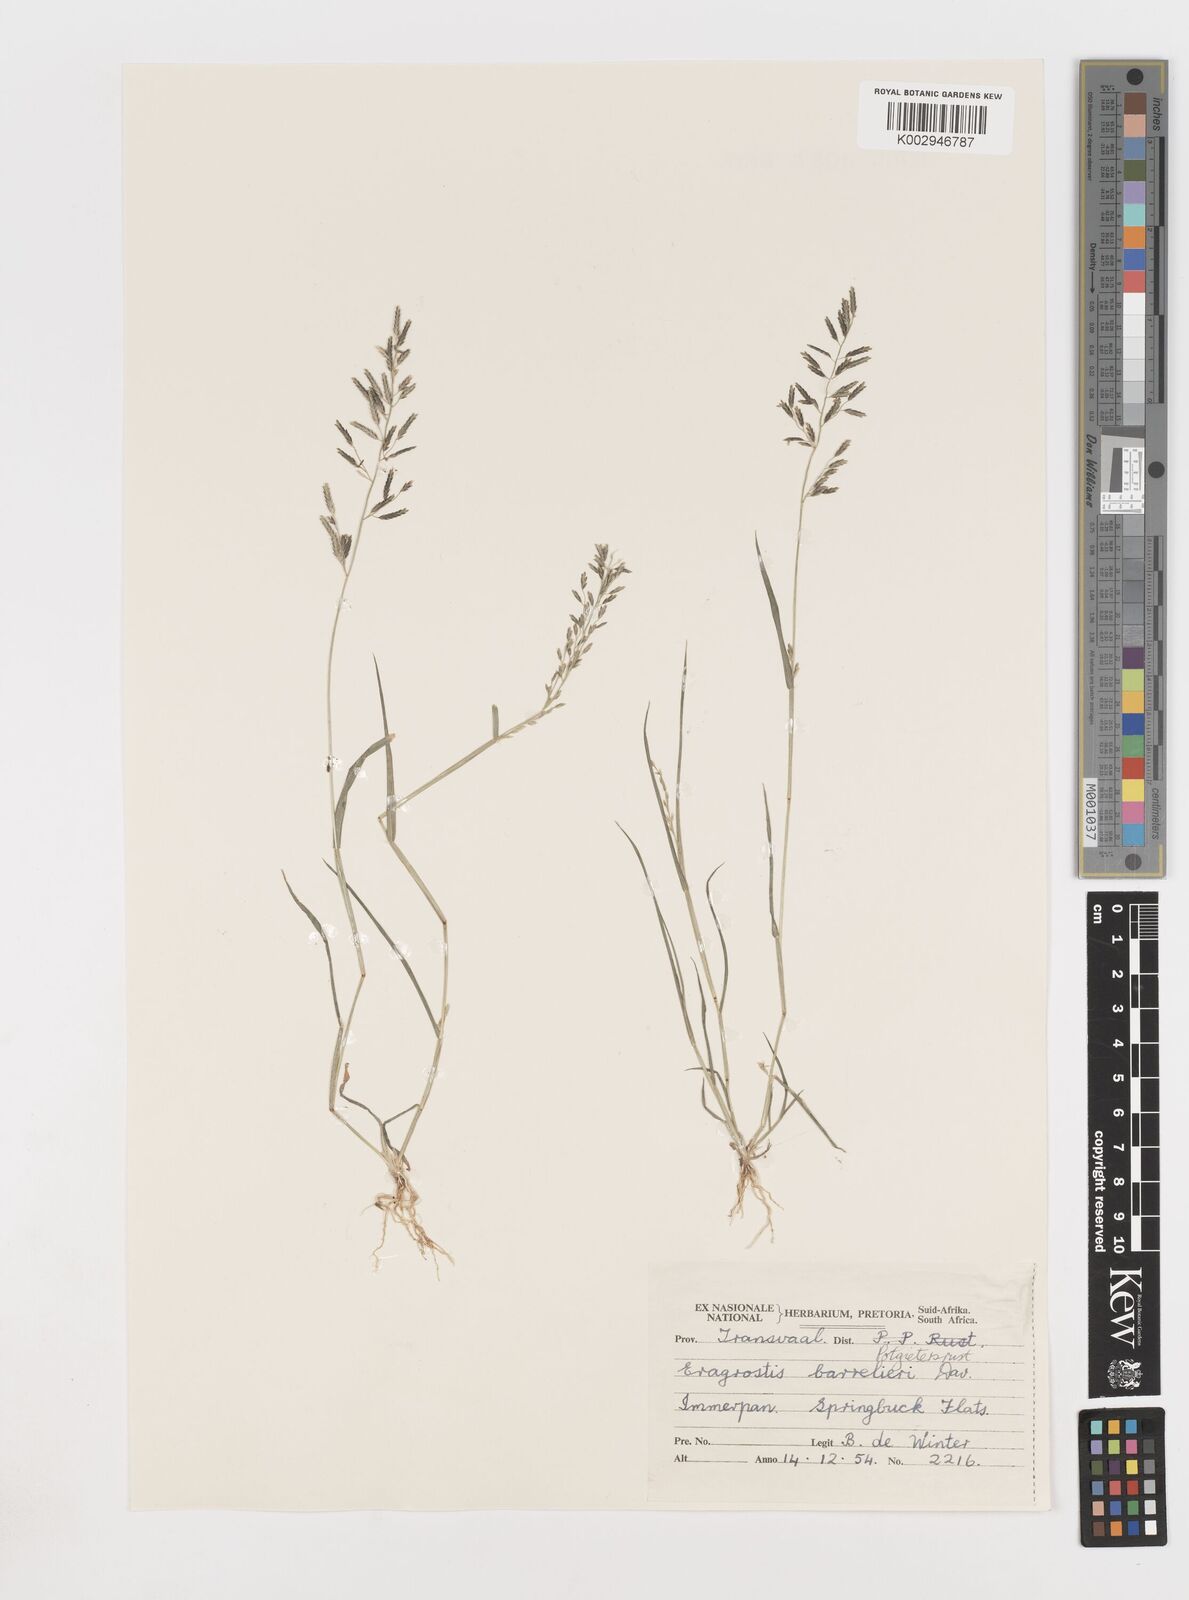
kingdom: Plantae
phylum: Tracheophyta
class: Liliopsida
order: Poales
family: Poaceae
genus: Eragrostis
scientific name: Eragrostis barrelieri
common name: Mediterranean lovegrass
